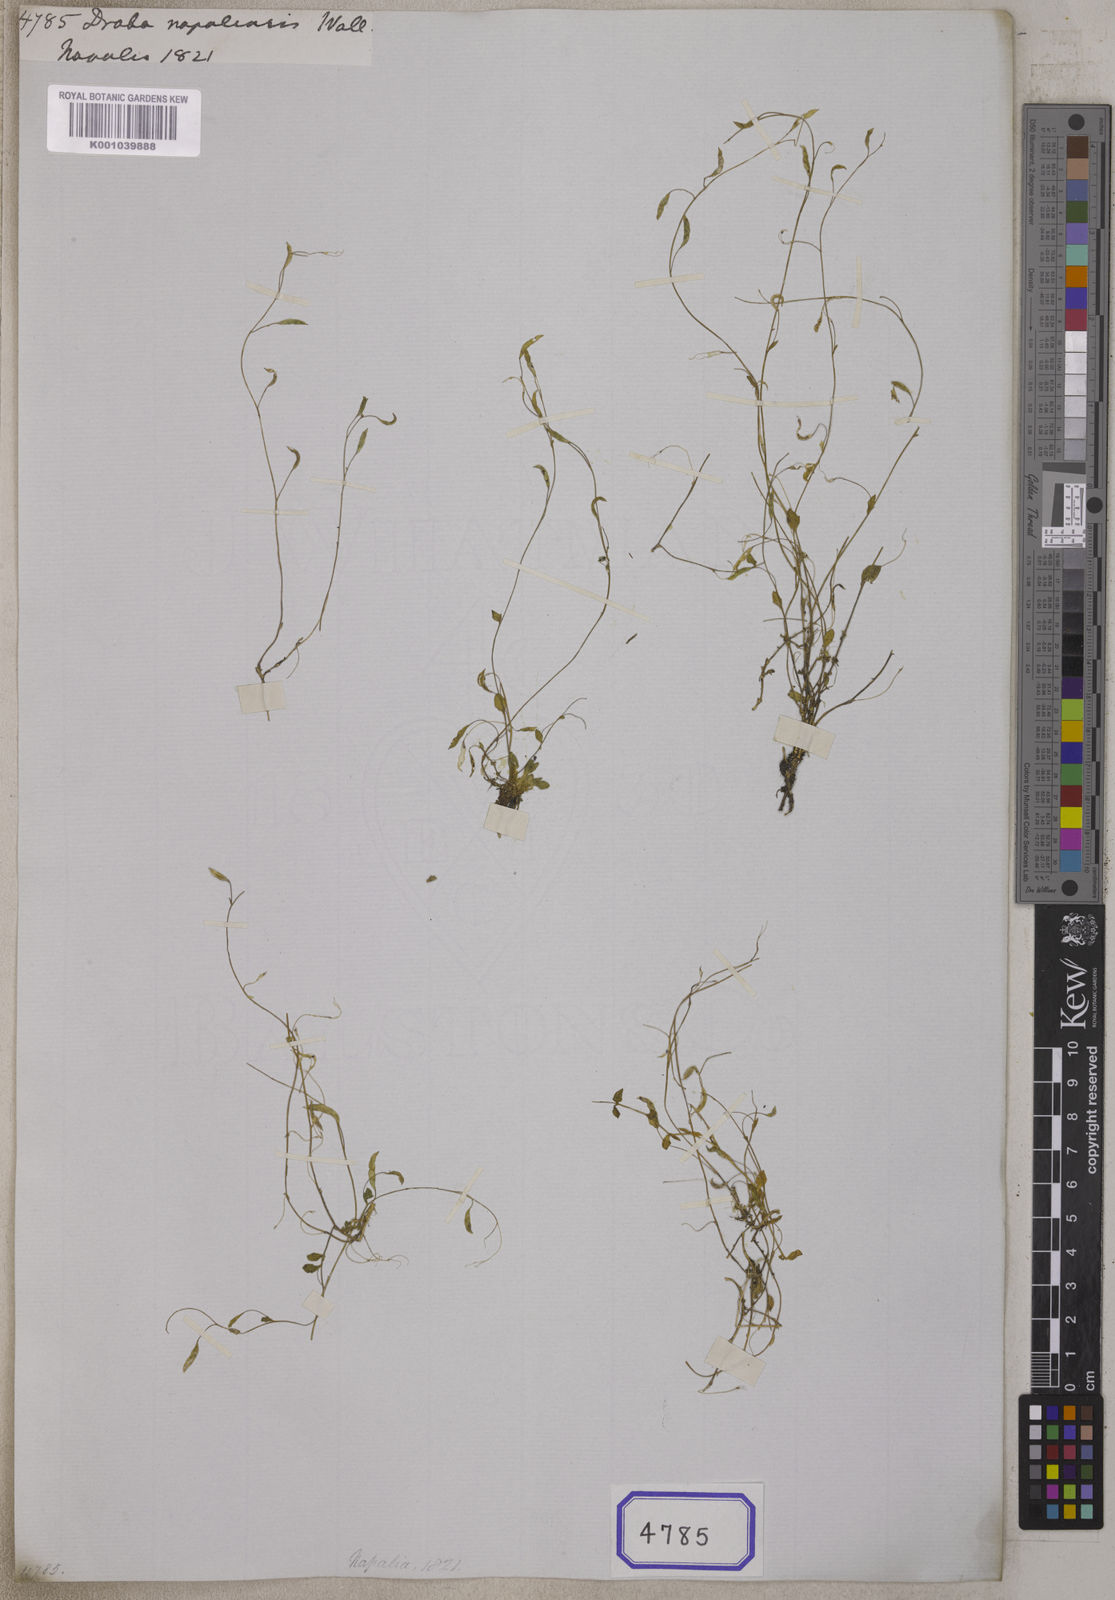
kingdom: Plantae
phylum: Tracheophyta
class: Magnoliopsida
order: Brassicales
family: Brassicaceae
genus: Draba
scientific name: Draba gracillima
